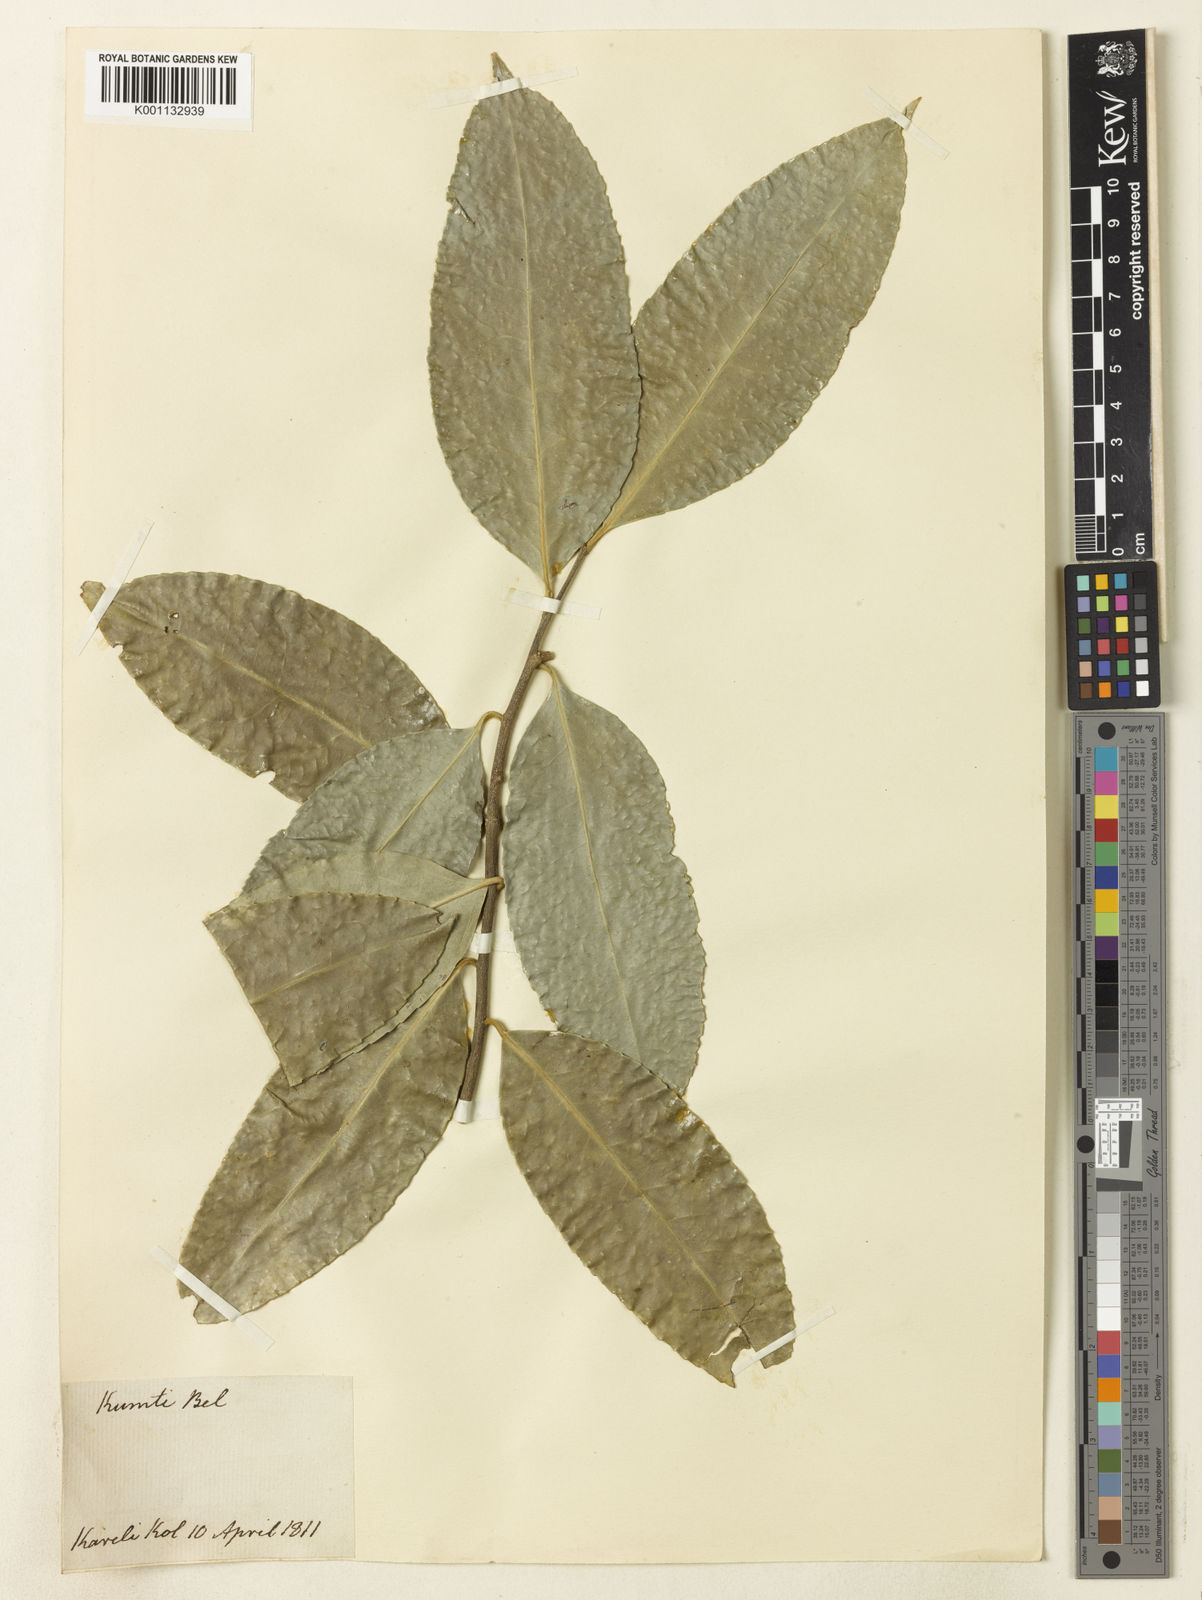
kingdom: Plantae
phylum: Tracheophyta
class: Magnoliopsida
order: Celastrales
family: Celastraceae
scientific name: Celastraceae
